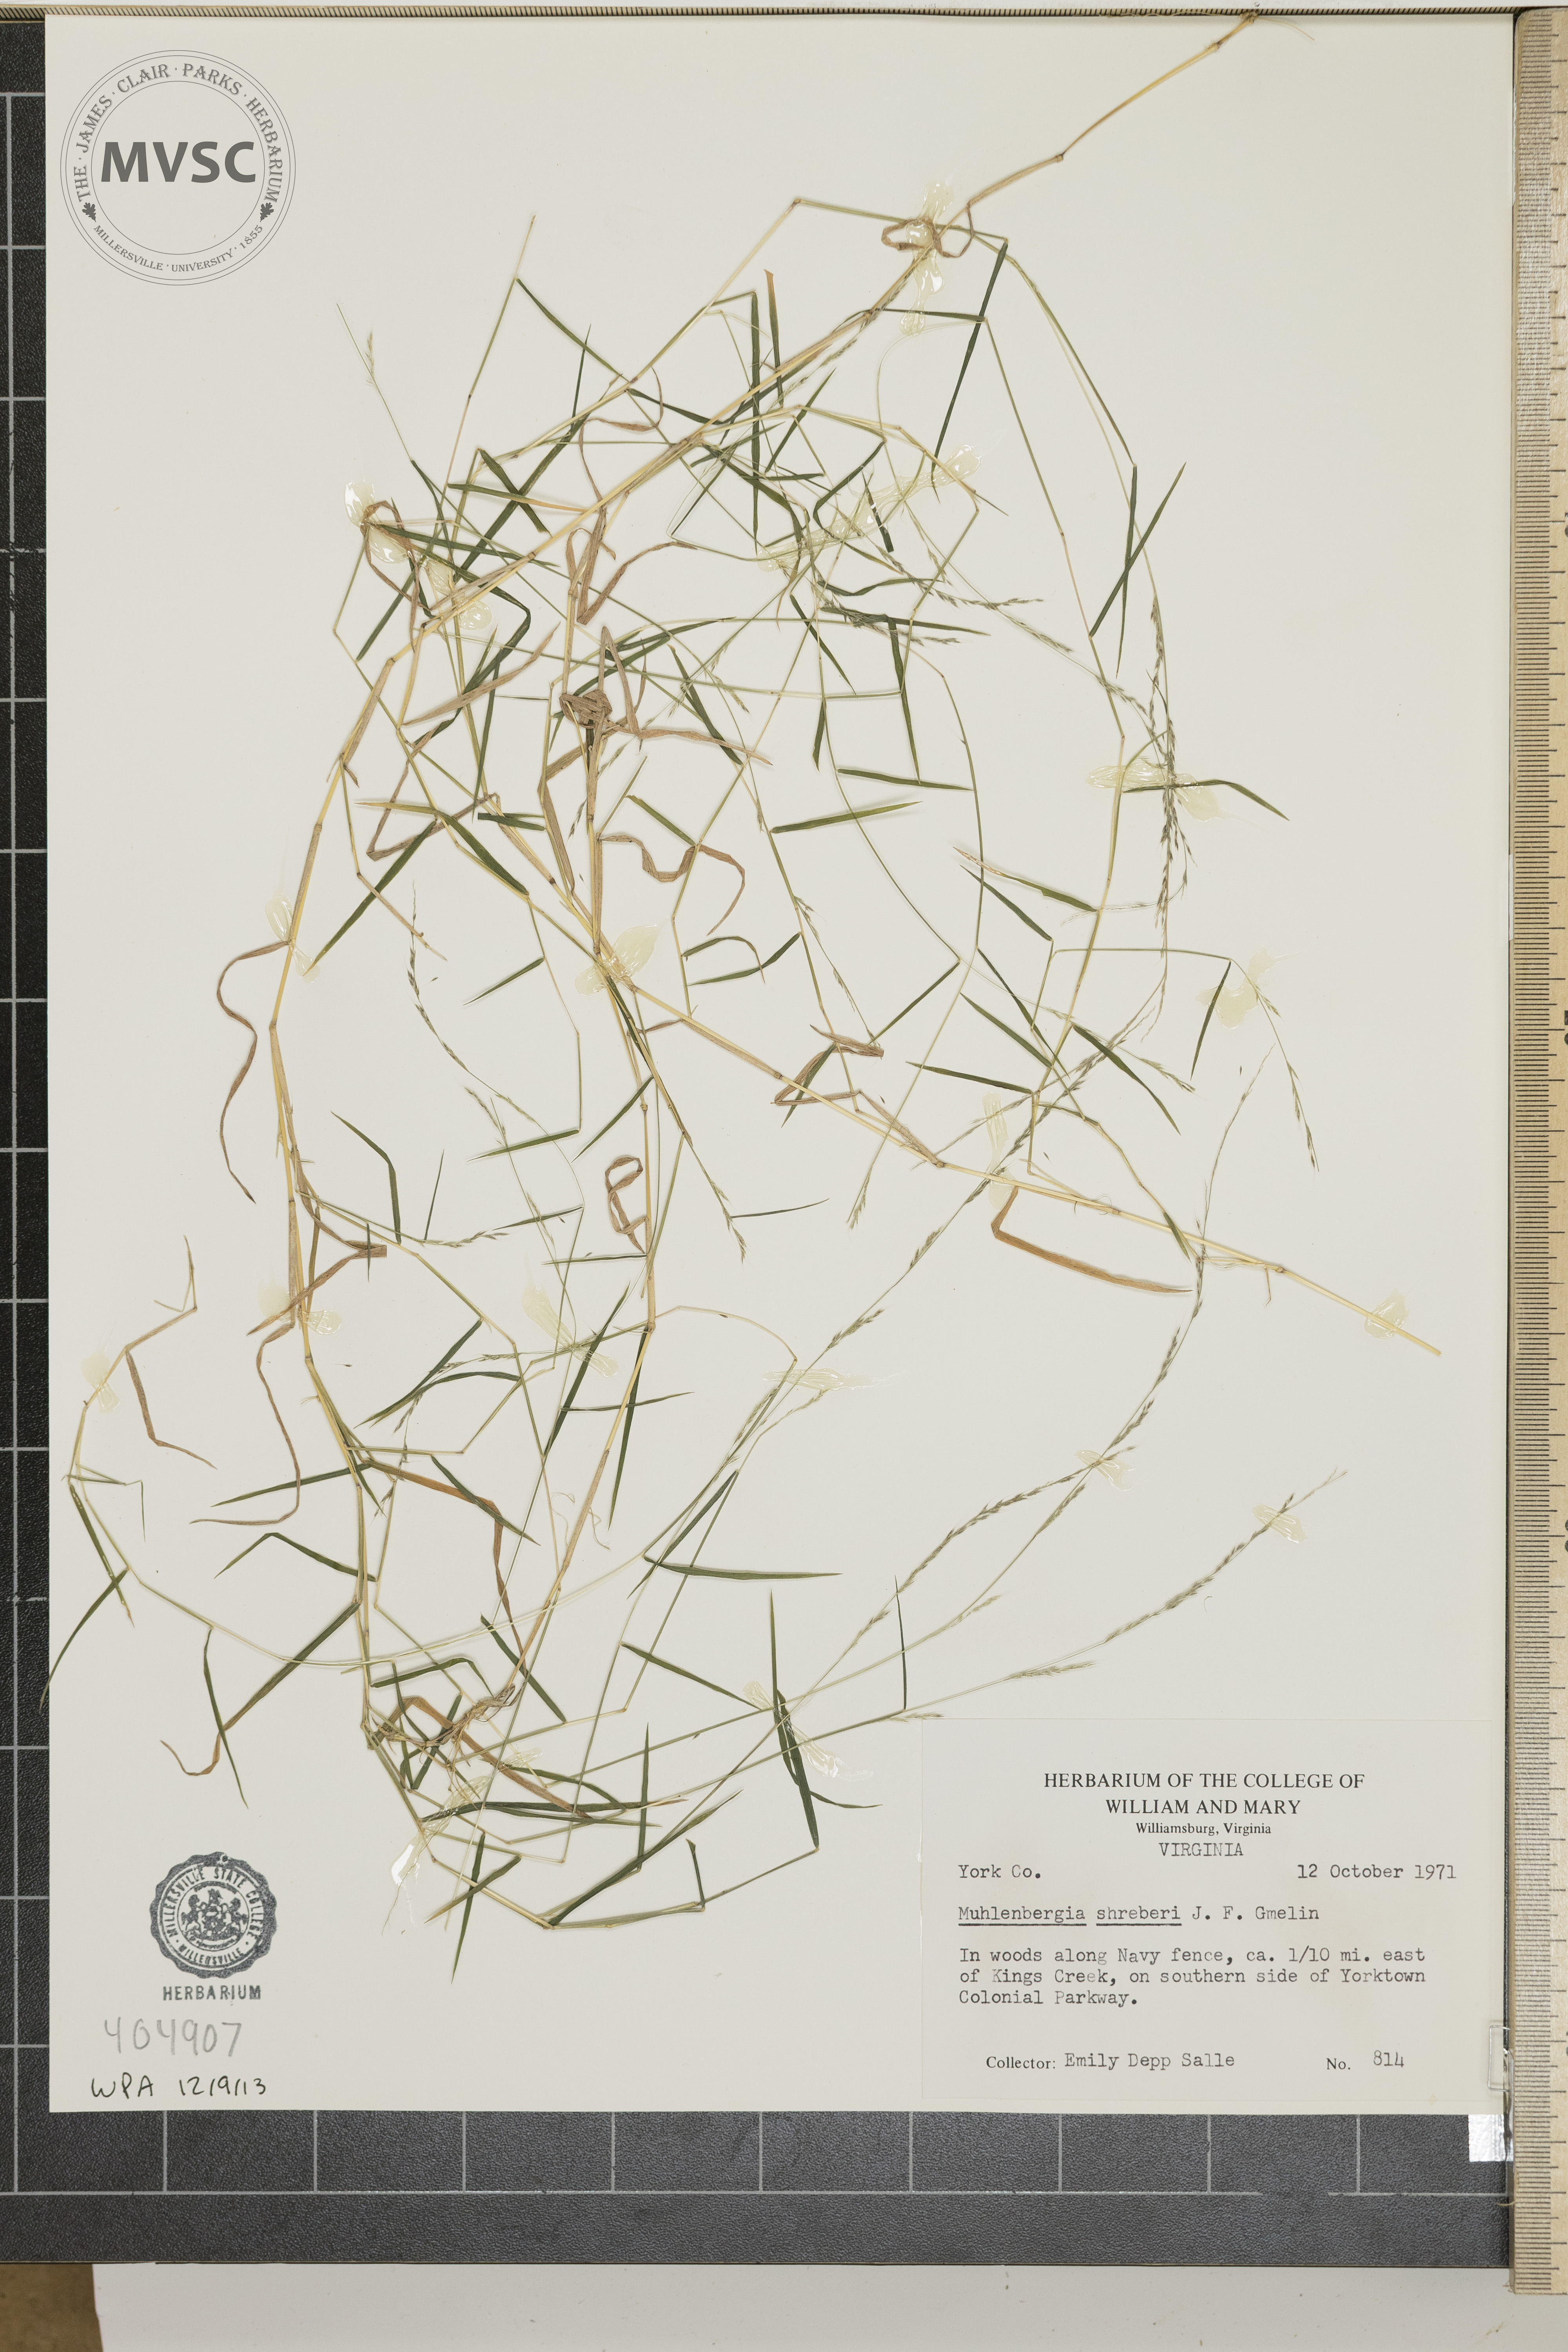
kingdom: Plantae
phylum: Tracheophyta
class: Liliopsida
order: Poales
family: Poaceae
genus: Muhlenbergia
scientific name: Muhlenbergia schreberi
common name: Nimblewill
